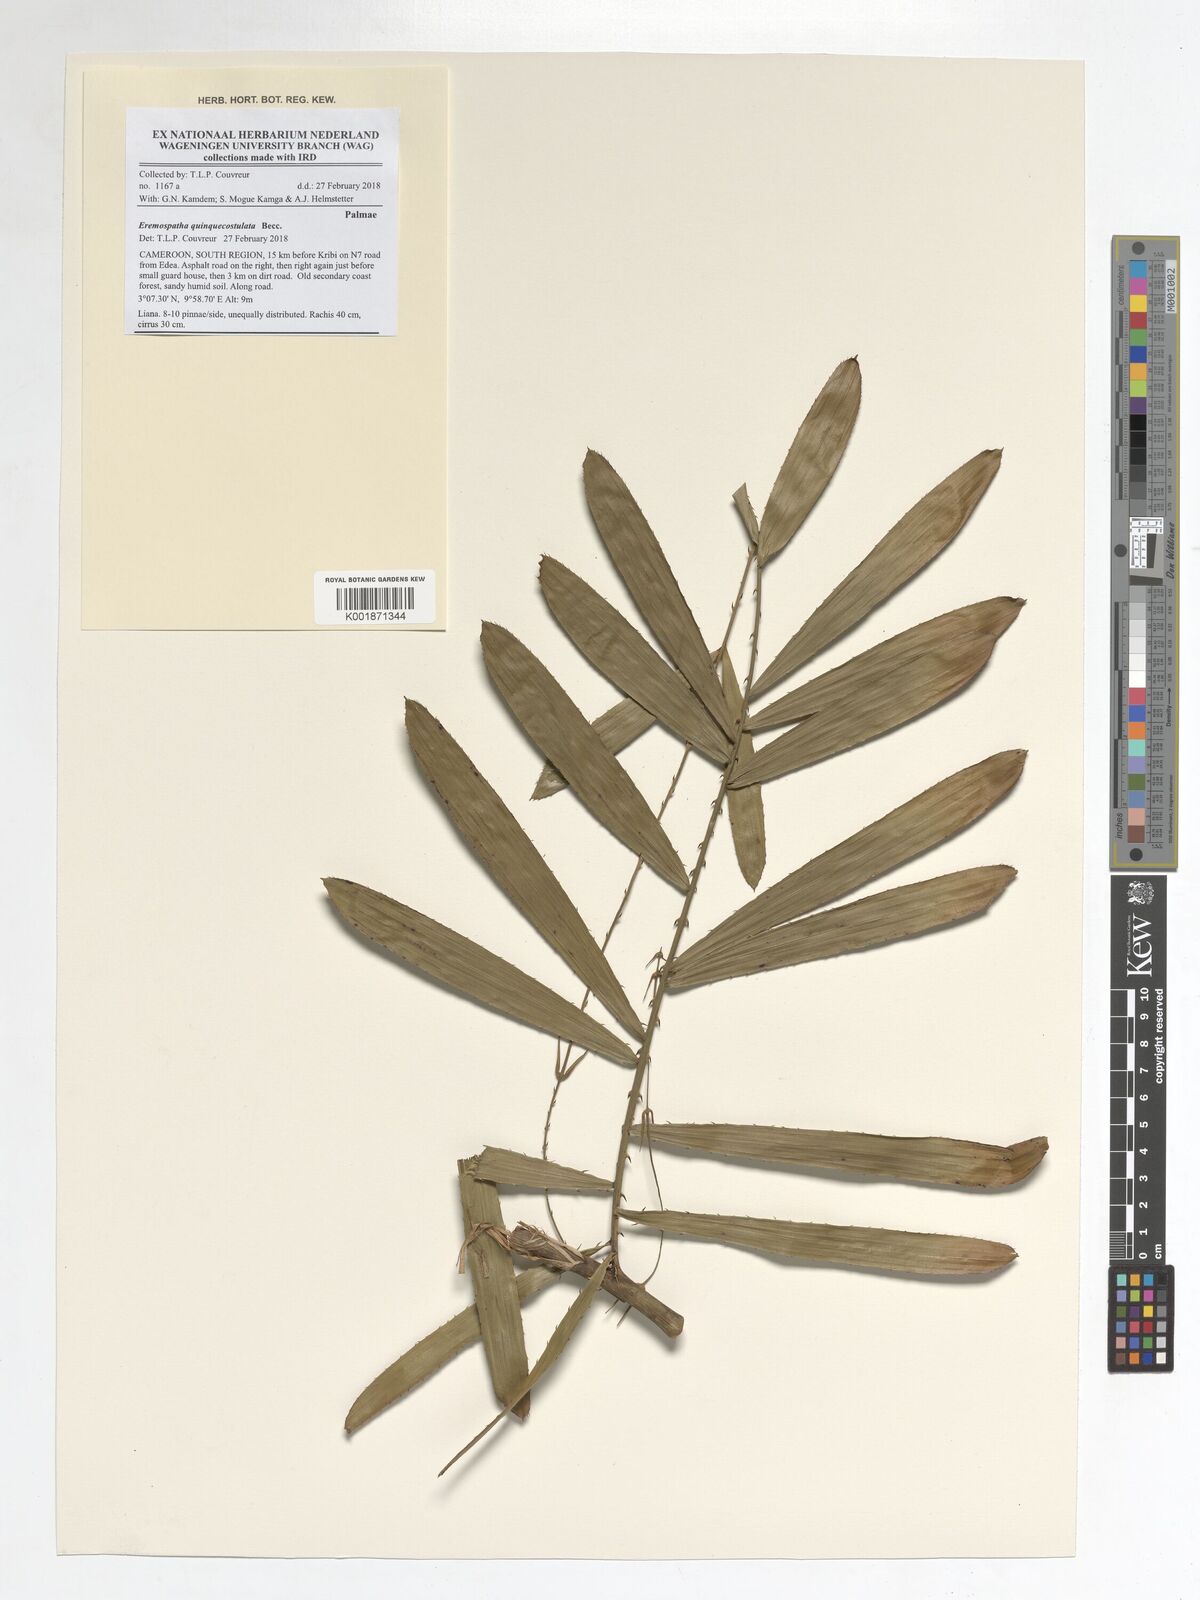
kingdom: Plantae
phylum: Tracheophyta
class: Liliopsida
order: Arecales
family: Arecaceae
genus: Eremospatha
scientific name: Eremospatha quinquecostulata
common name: Rattan
